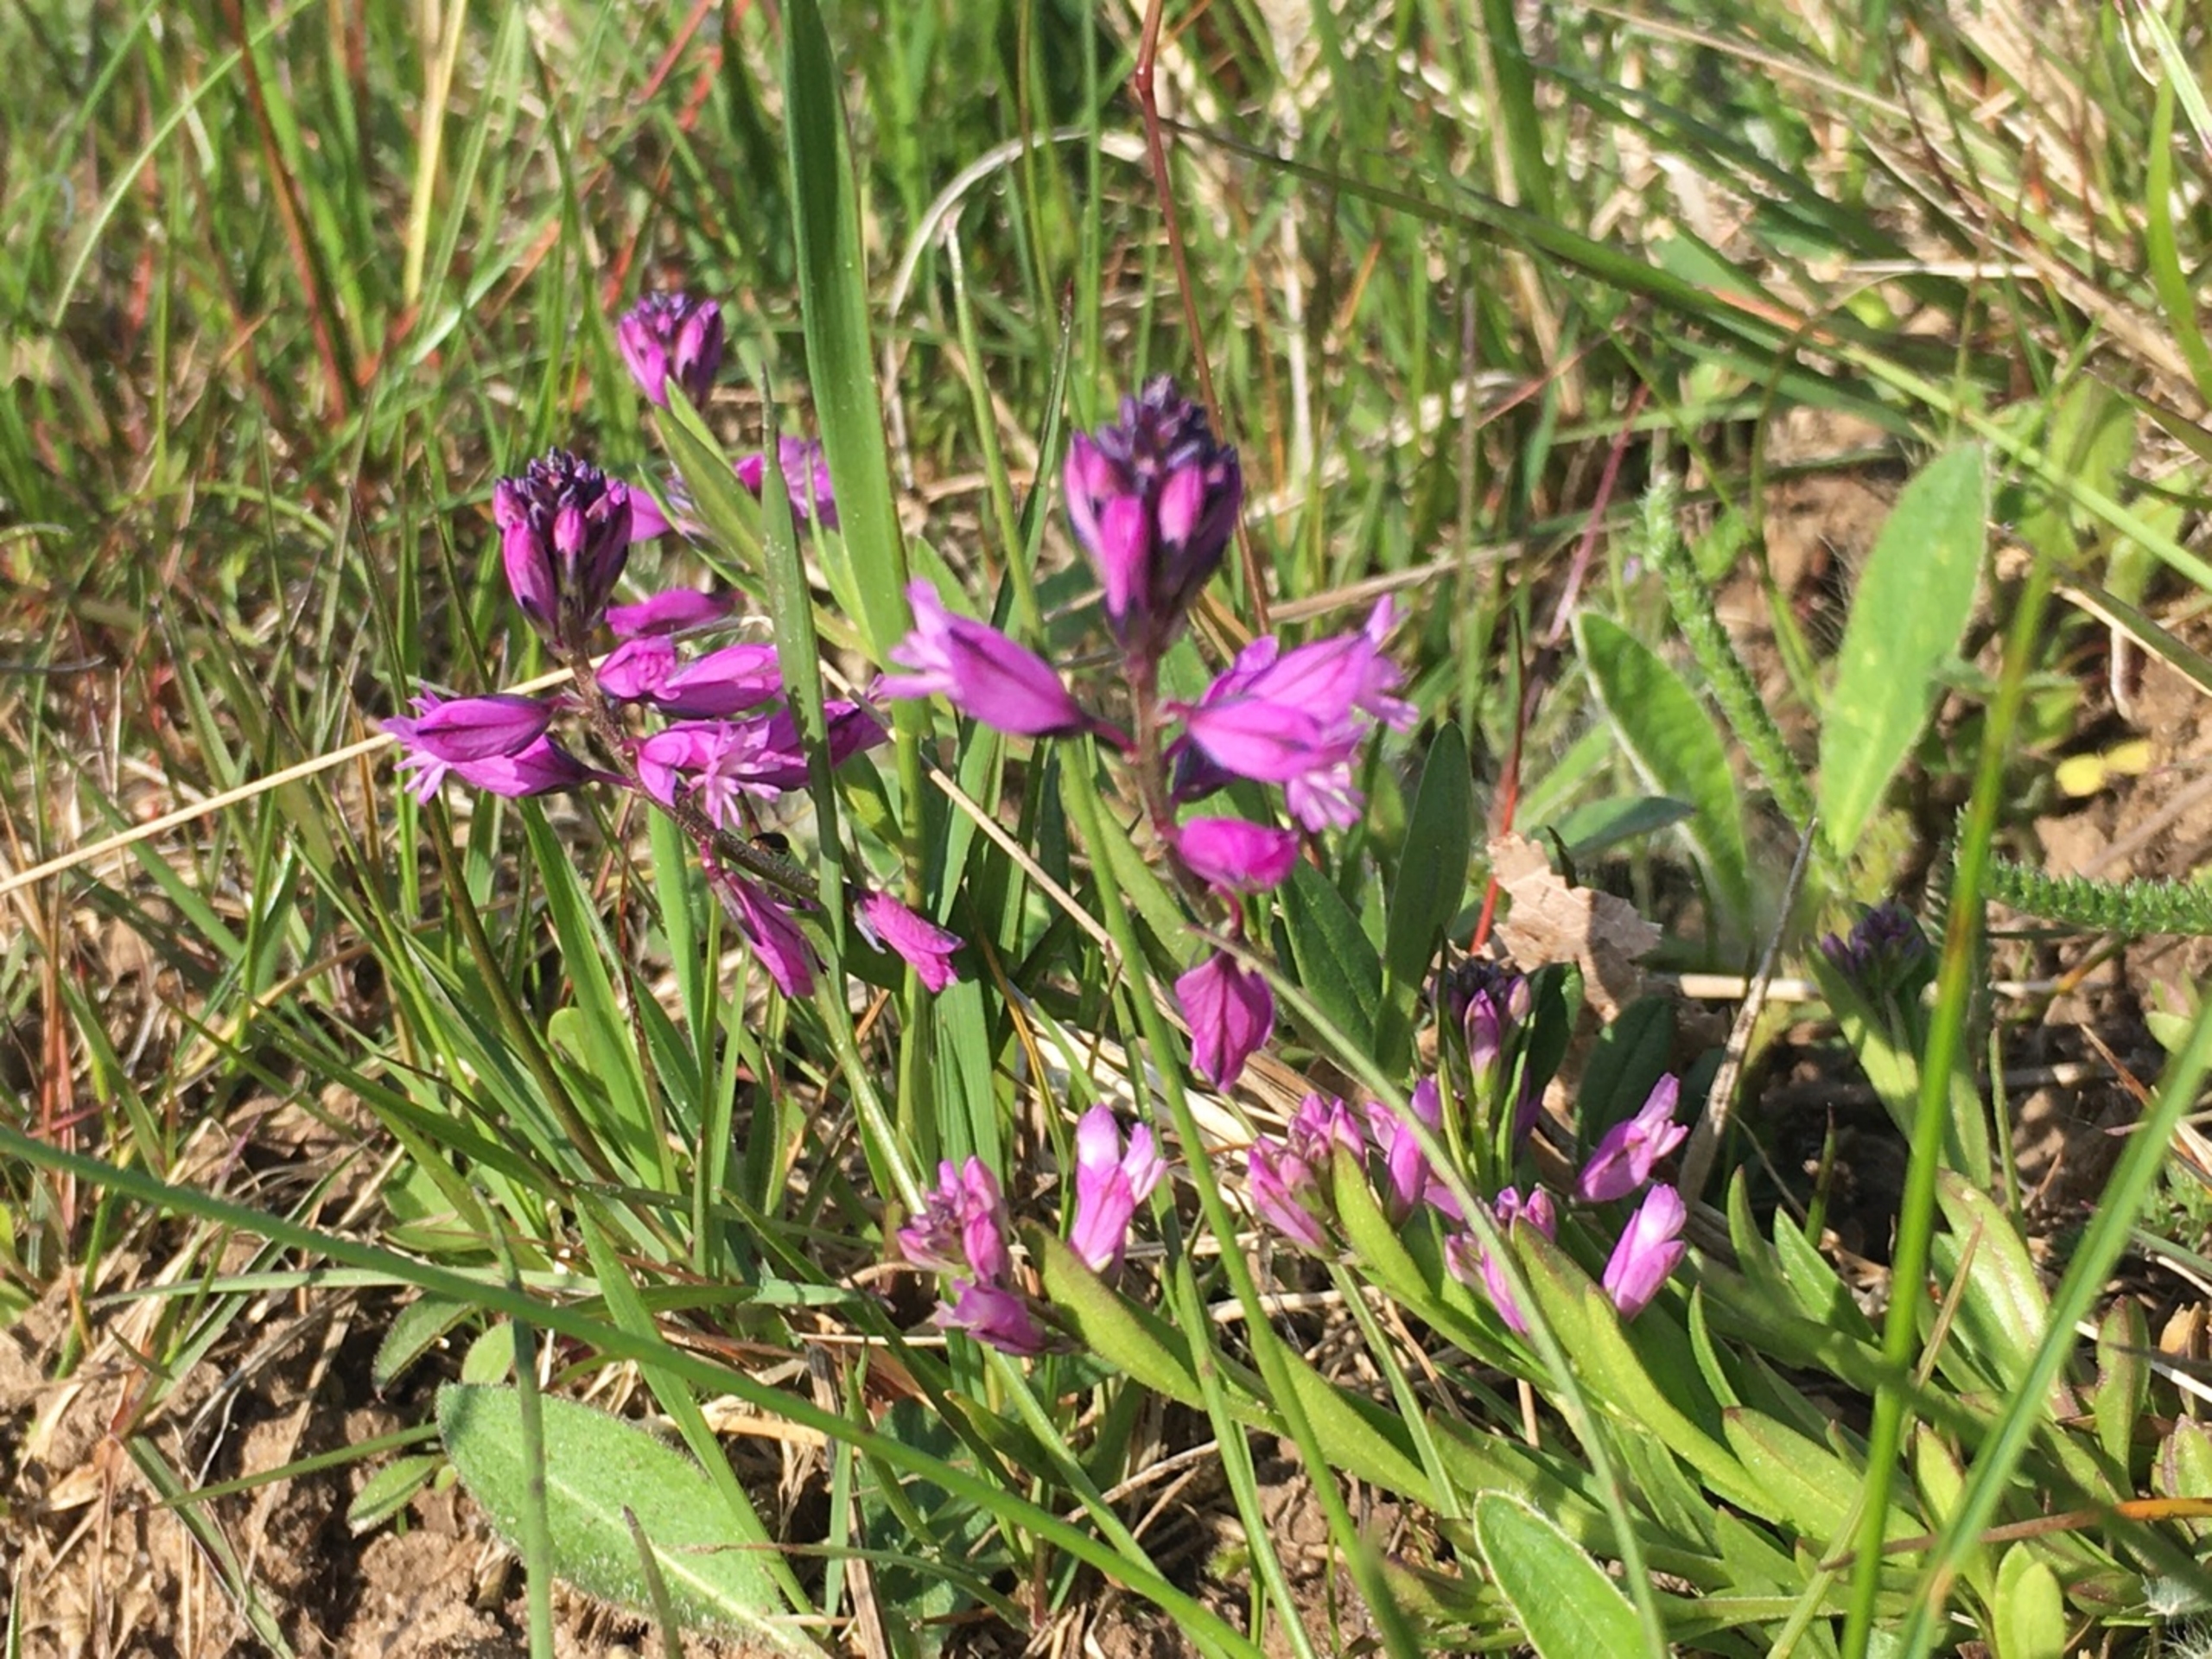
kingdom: Plantae
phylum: Tracheophyta
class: Magnoliopsida
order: Fabales
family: Polygalaceae
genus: Polygala
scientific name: Polygala vulgaris
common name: Almindelig mælkeurt
